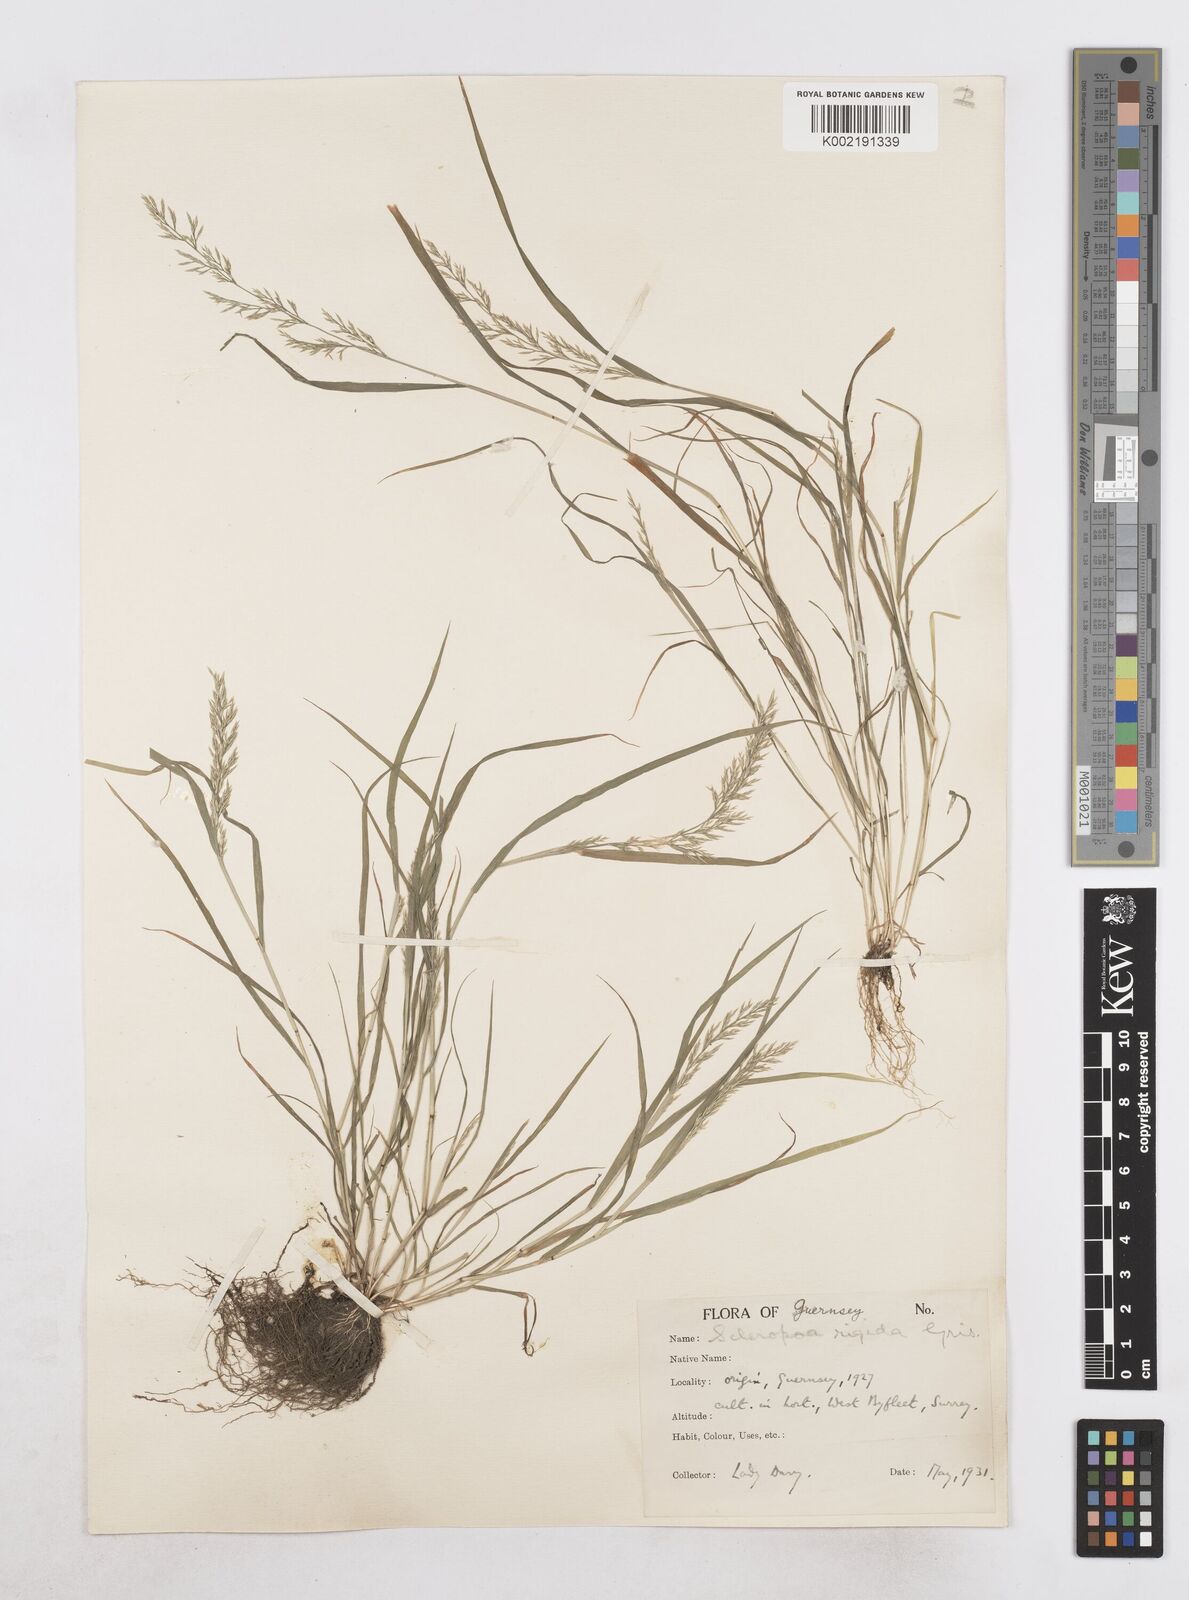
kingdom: Plantae
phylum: Tracheophyta
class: Liliopsida
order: Poales
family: Poaceae
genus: Catapodium
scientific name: Catapodium rigidum
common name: Fern-grass
